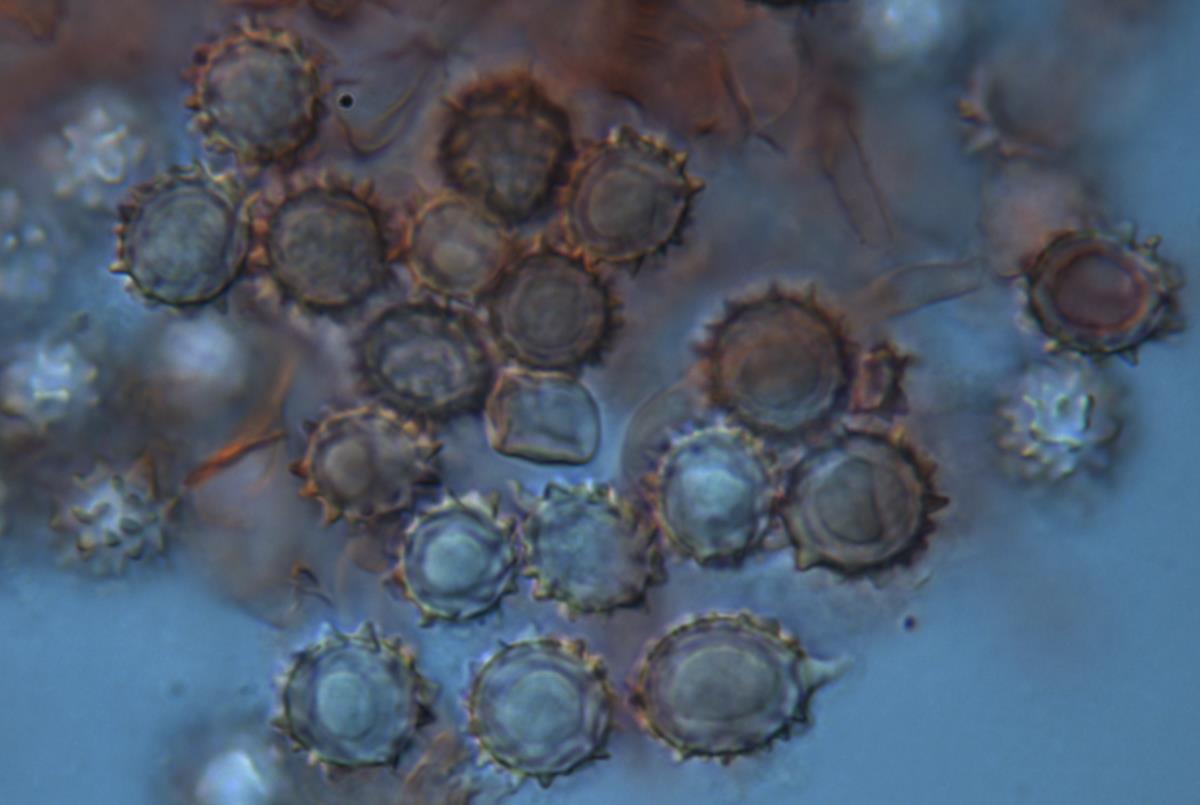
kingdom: Fungi
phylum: Basidiomycota
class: Agaricomycetes
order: Agaricales
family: Stephanosporaceae
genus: Stephanospora
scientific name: Stephanospora poropingao
